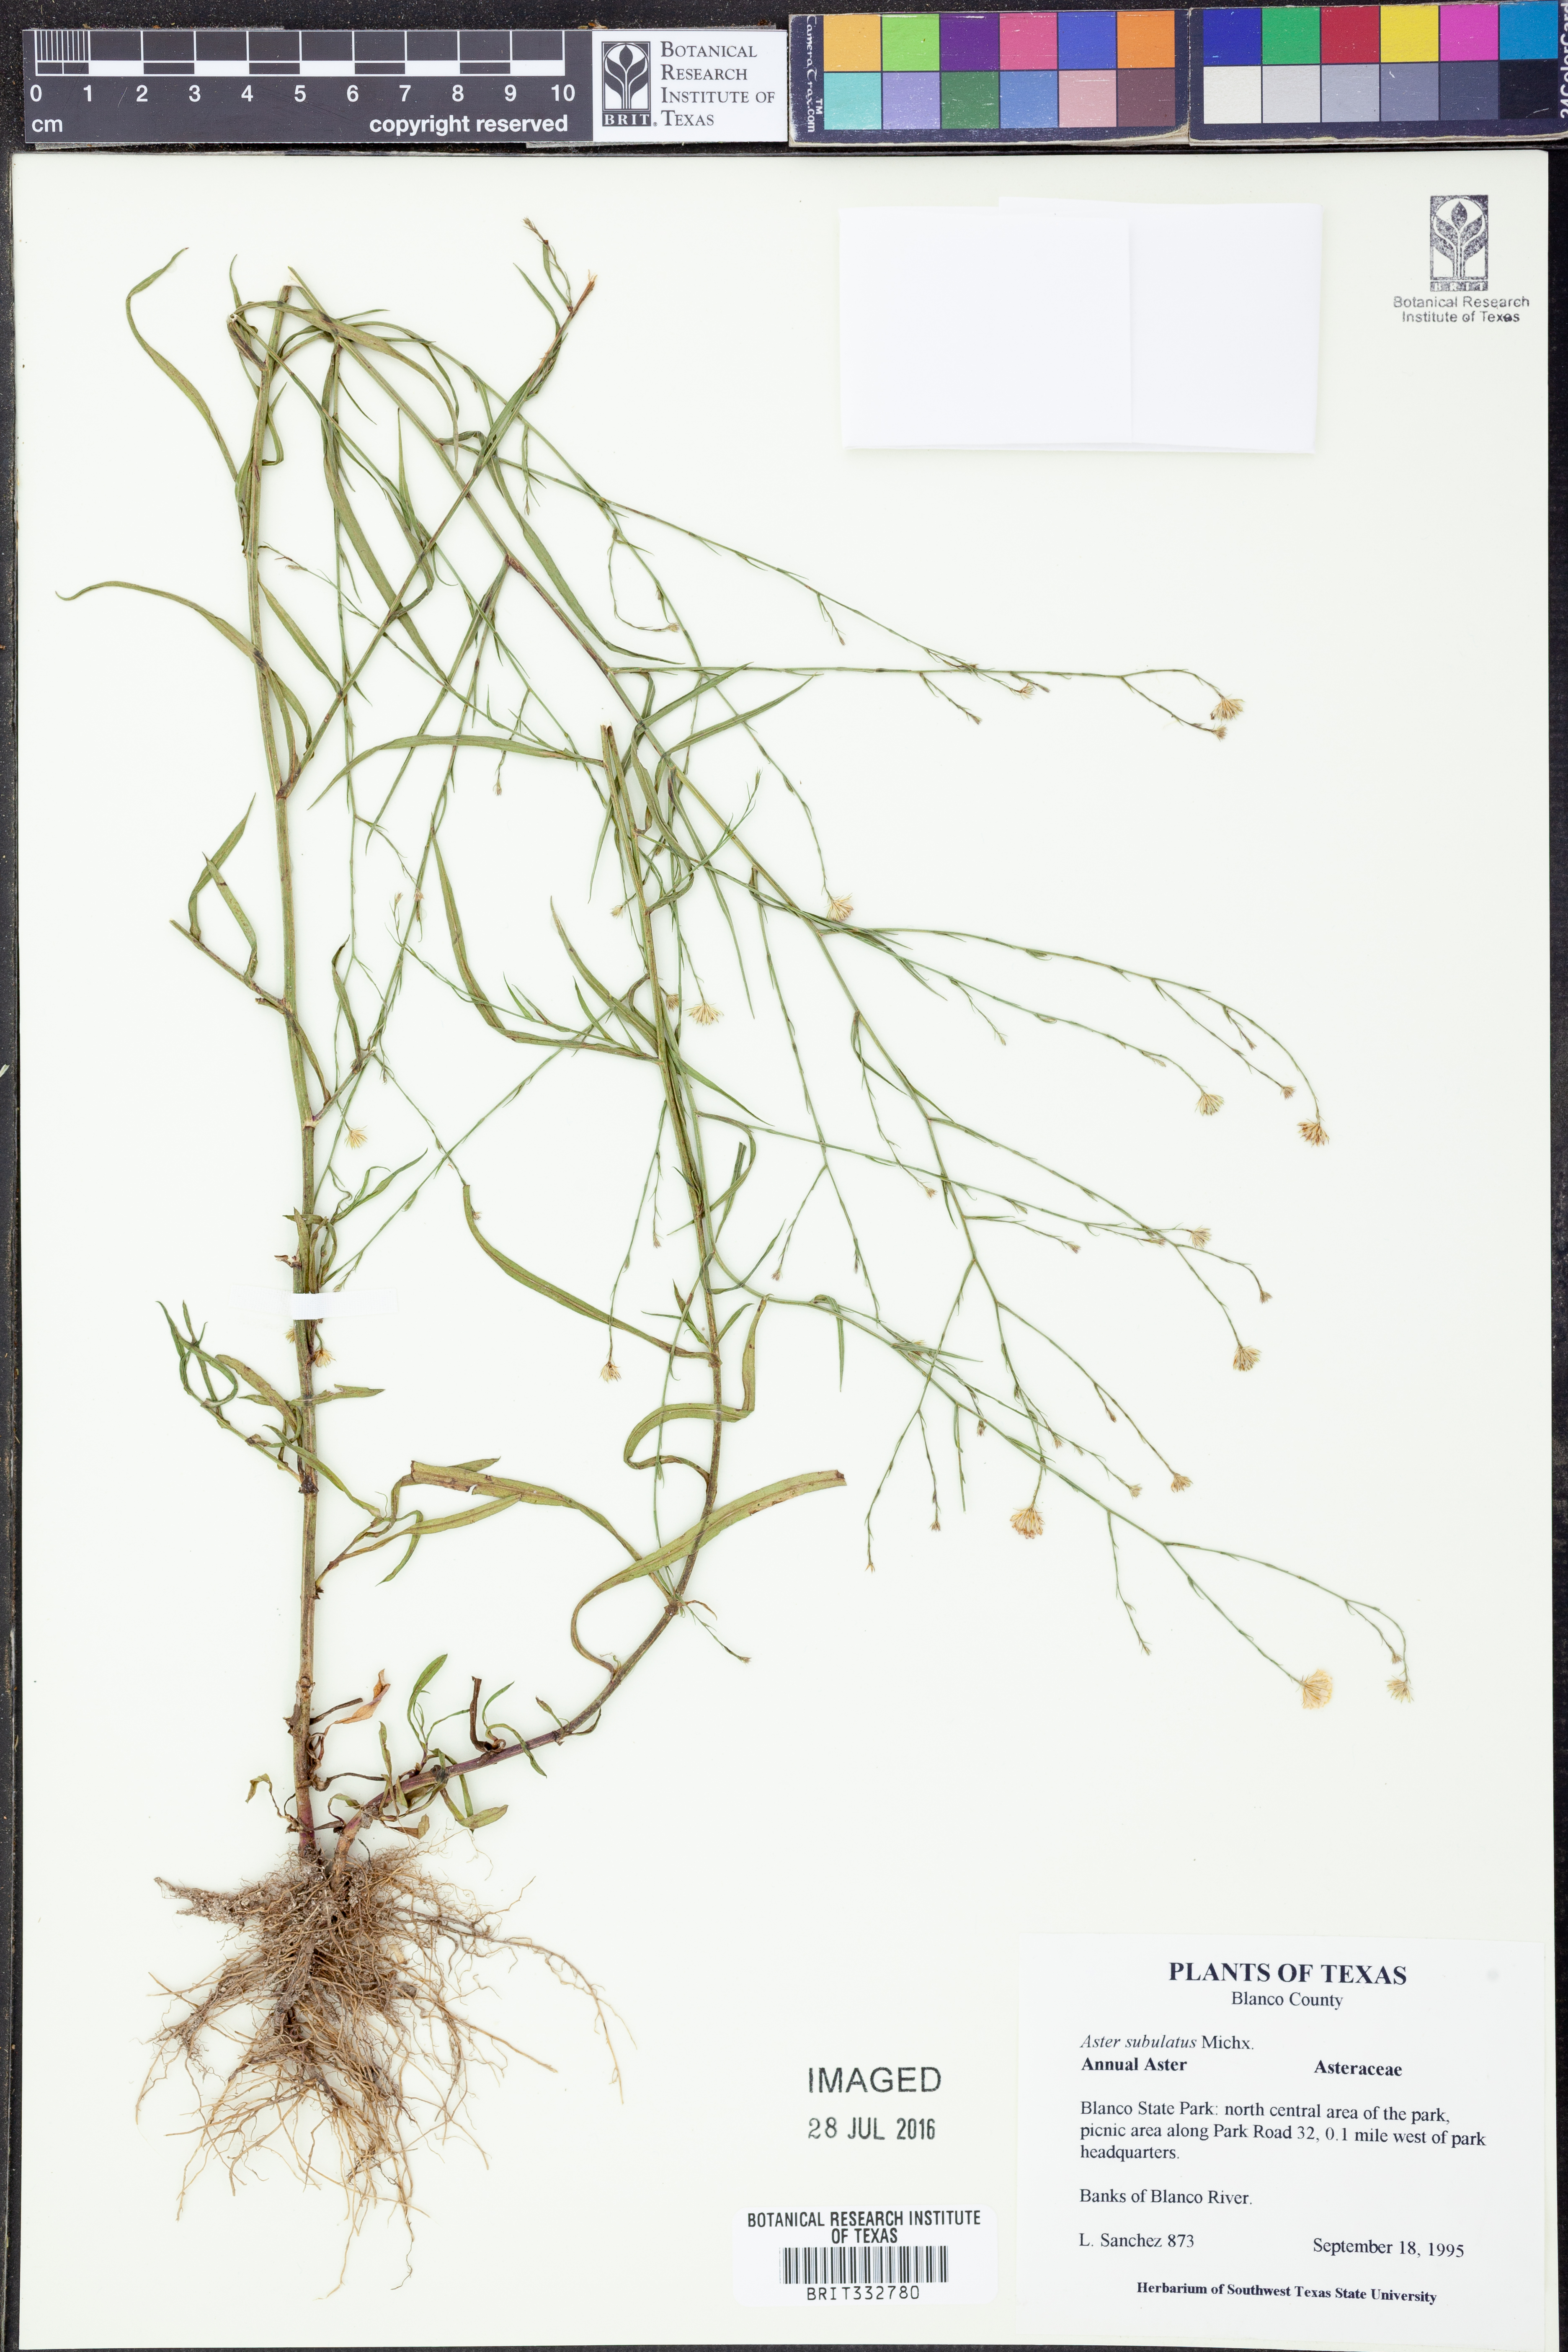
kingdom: Plantae
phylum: Tracheophyta
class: Magnoliopsida
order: Asterales
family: Asteraceae
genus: Symphyotrichum
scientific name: Symphyotrichum subulatum
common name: Annual saltmarsh aster
